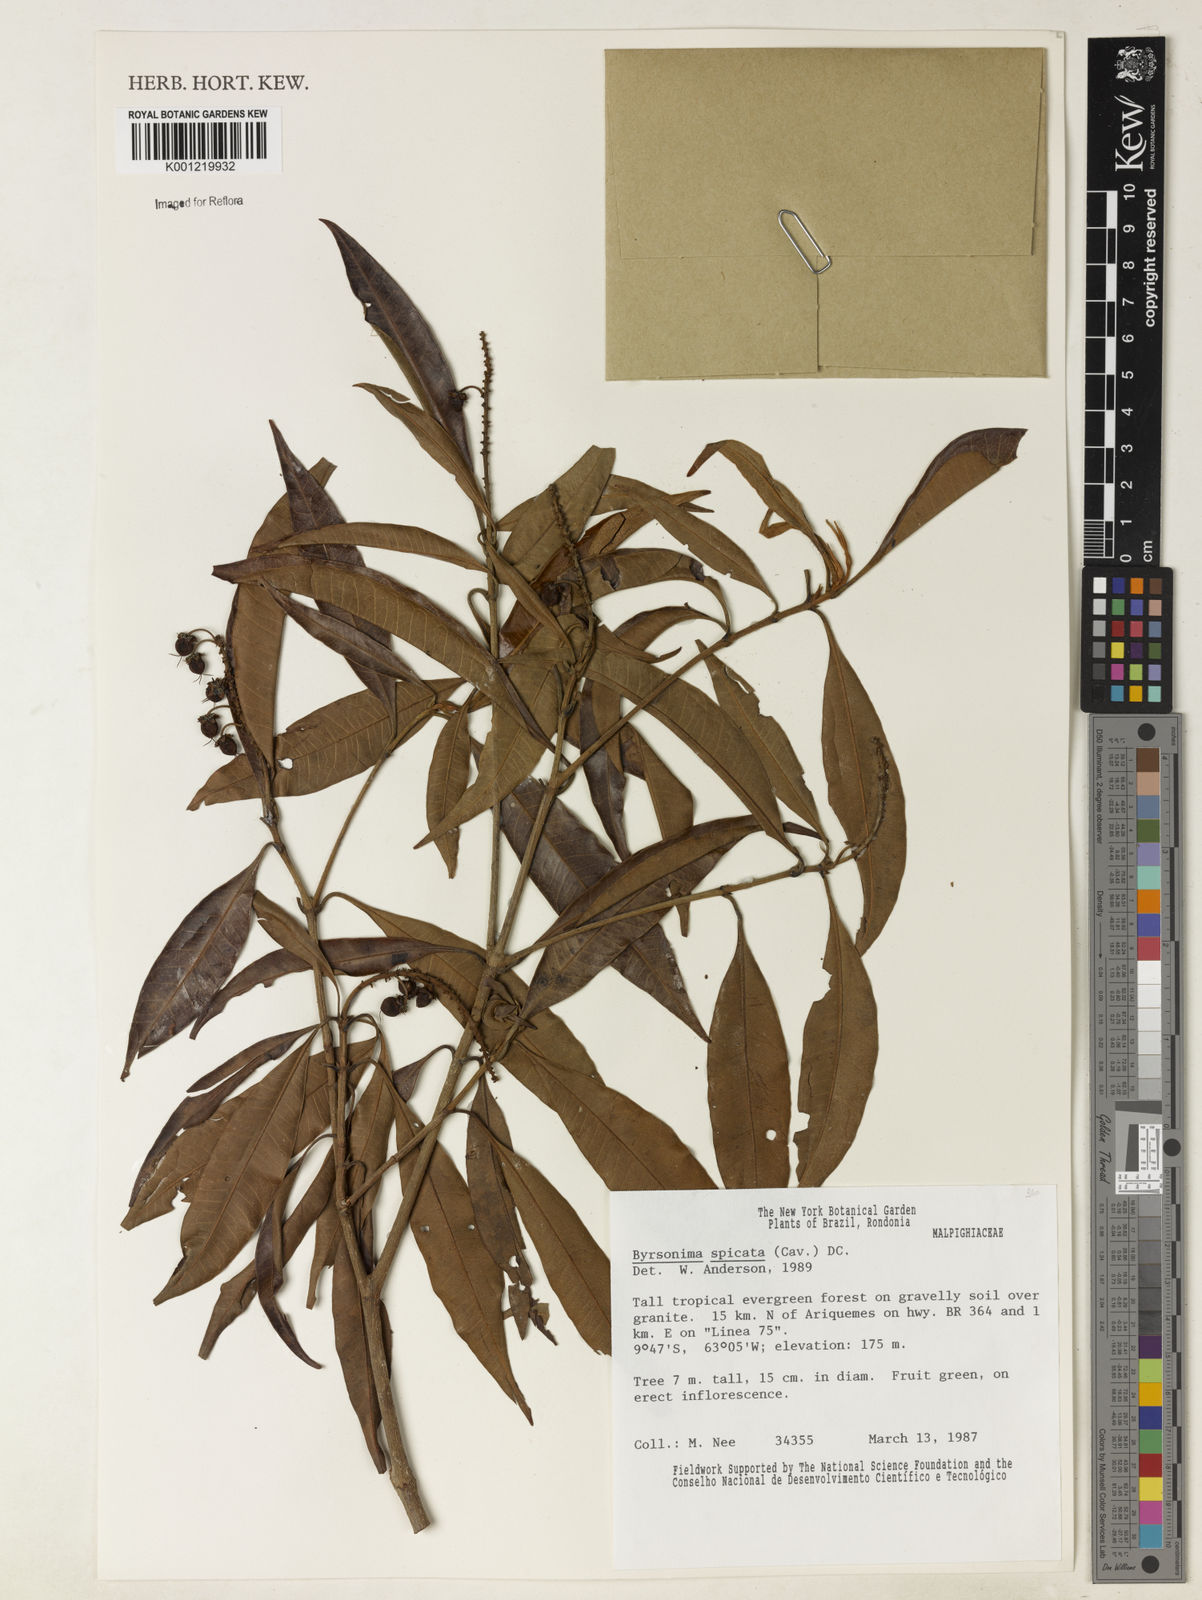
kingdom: Plantae
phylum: Tracheophyta
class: Magnoliopsida
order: Malpighiales
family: Malpighiaceae
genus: Byrsonima
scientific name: Byrsonima
